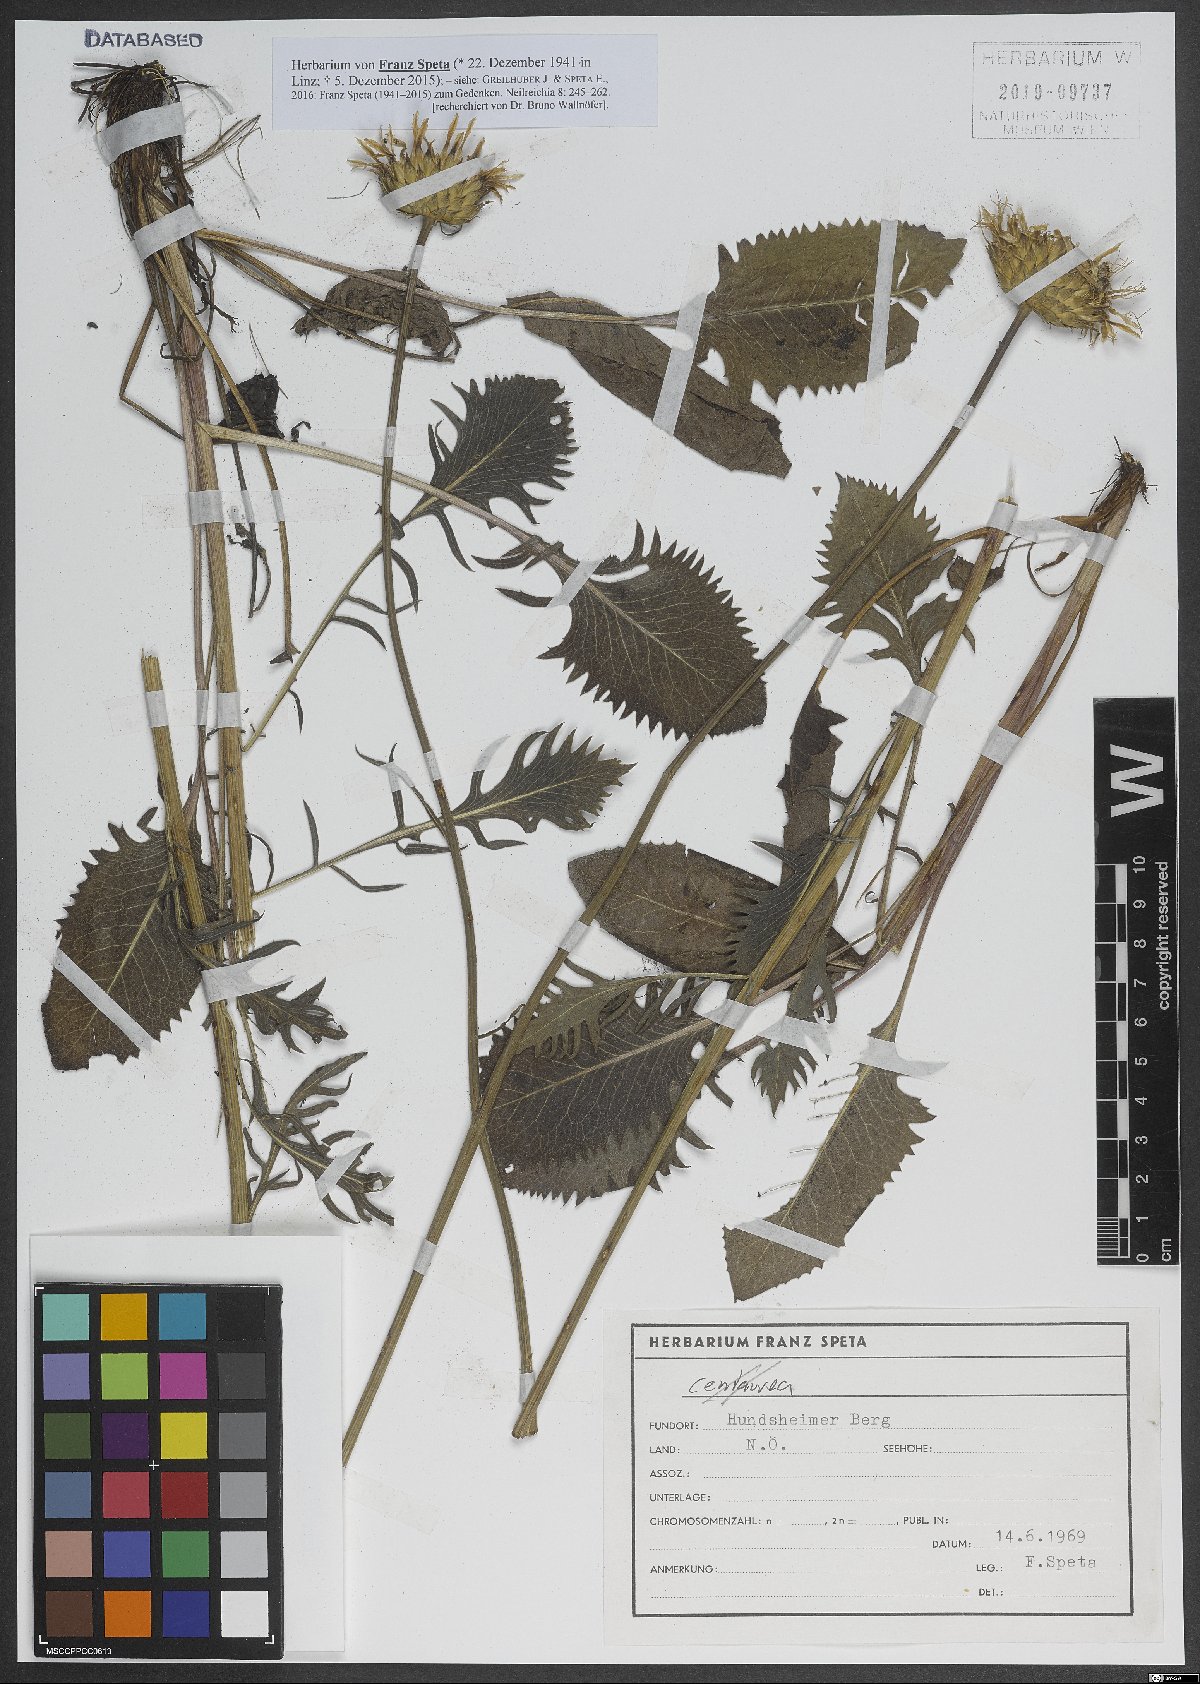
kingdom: Plantae
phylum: Tracheophyta
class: Magnoliopsida
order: Asterales
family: Asteraceae
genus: Klasea
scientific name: Klasea lycopifolia
